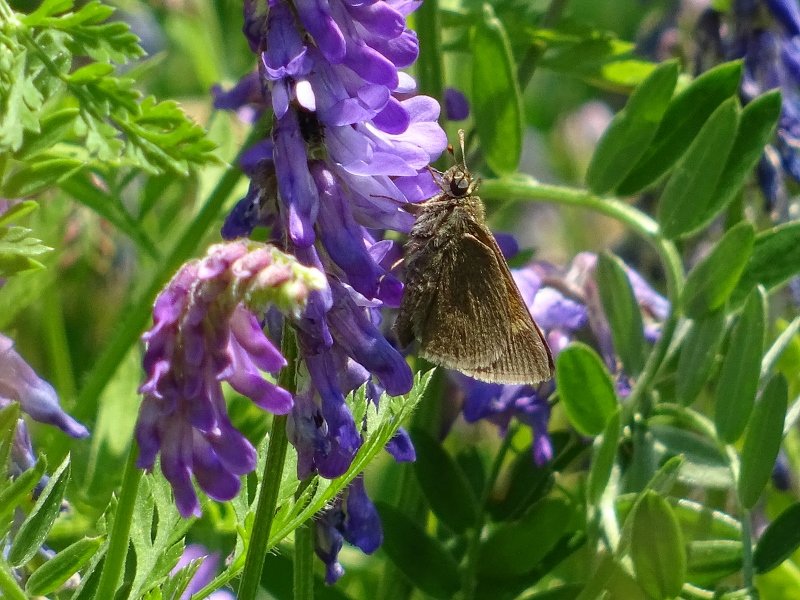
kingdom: Animalia
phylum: Arthropoda
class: Insecta
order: Lepidoptera
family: Hesperiidae
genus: Polites
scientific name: Polites egeremet
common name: Northern Broken-Dash
